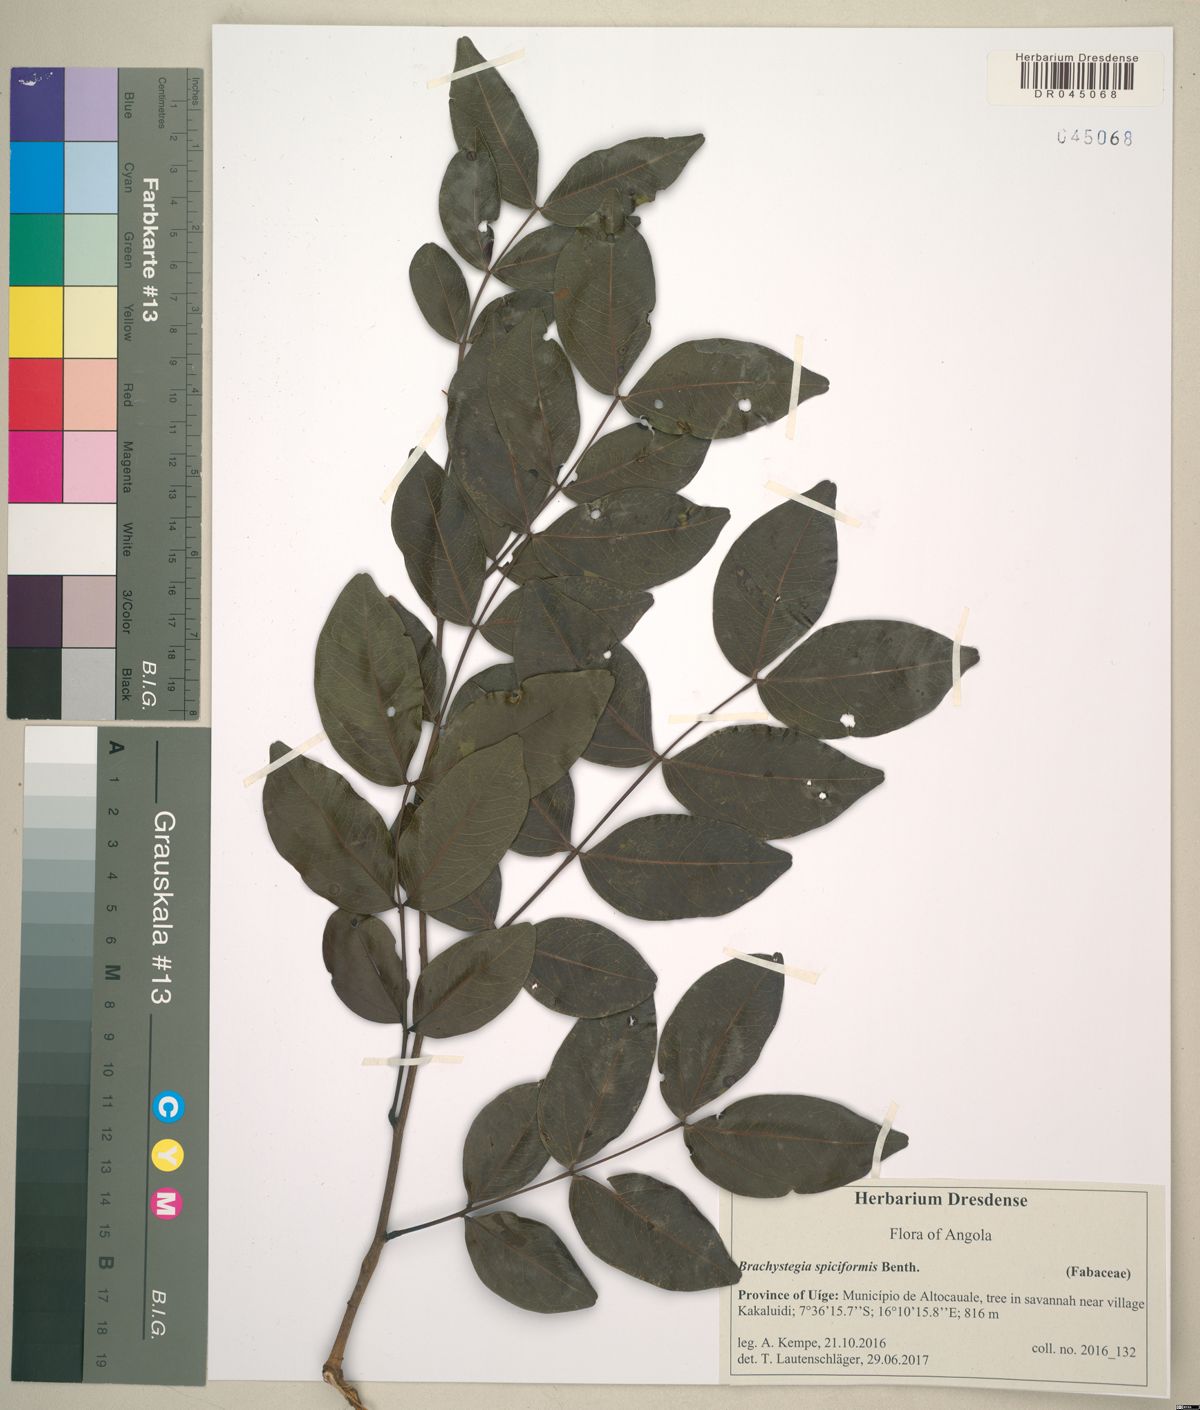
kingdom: Plantae
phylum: Tracheophyta
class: Magnoliopsida
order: Fabales
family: Fabaceae
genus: Brachystegia
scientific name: Brachystegia spiciformis
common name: Zebrawood
